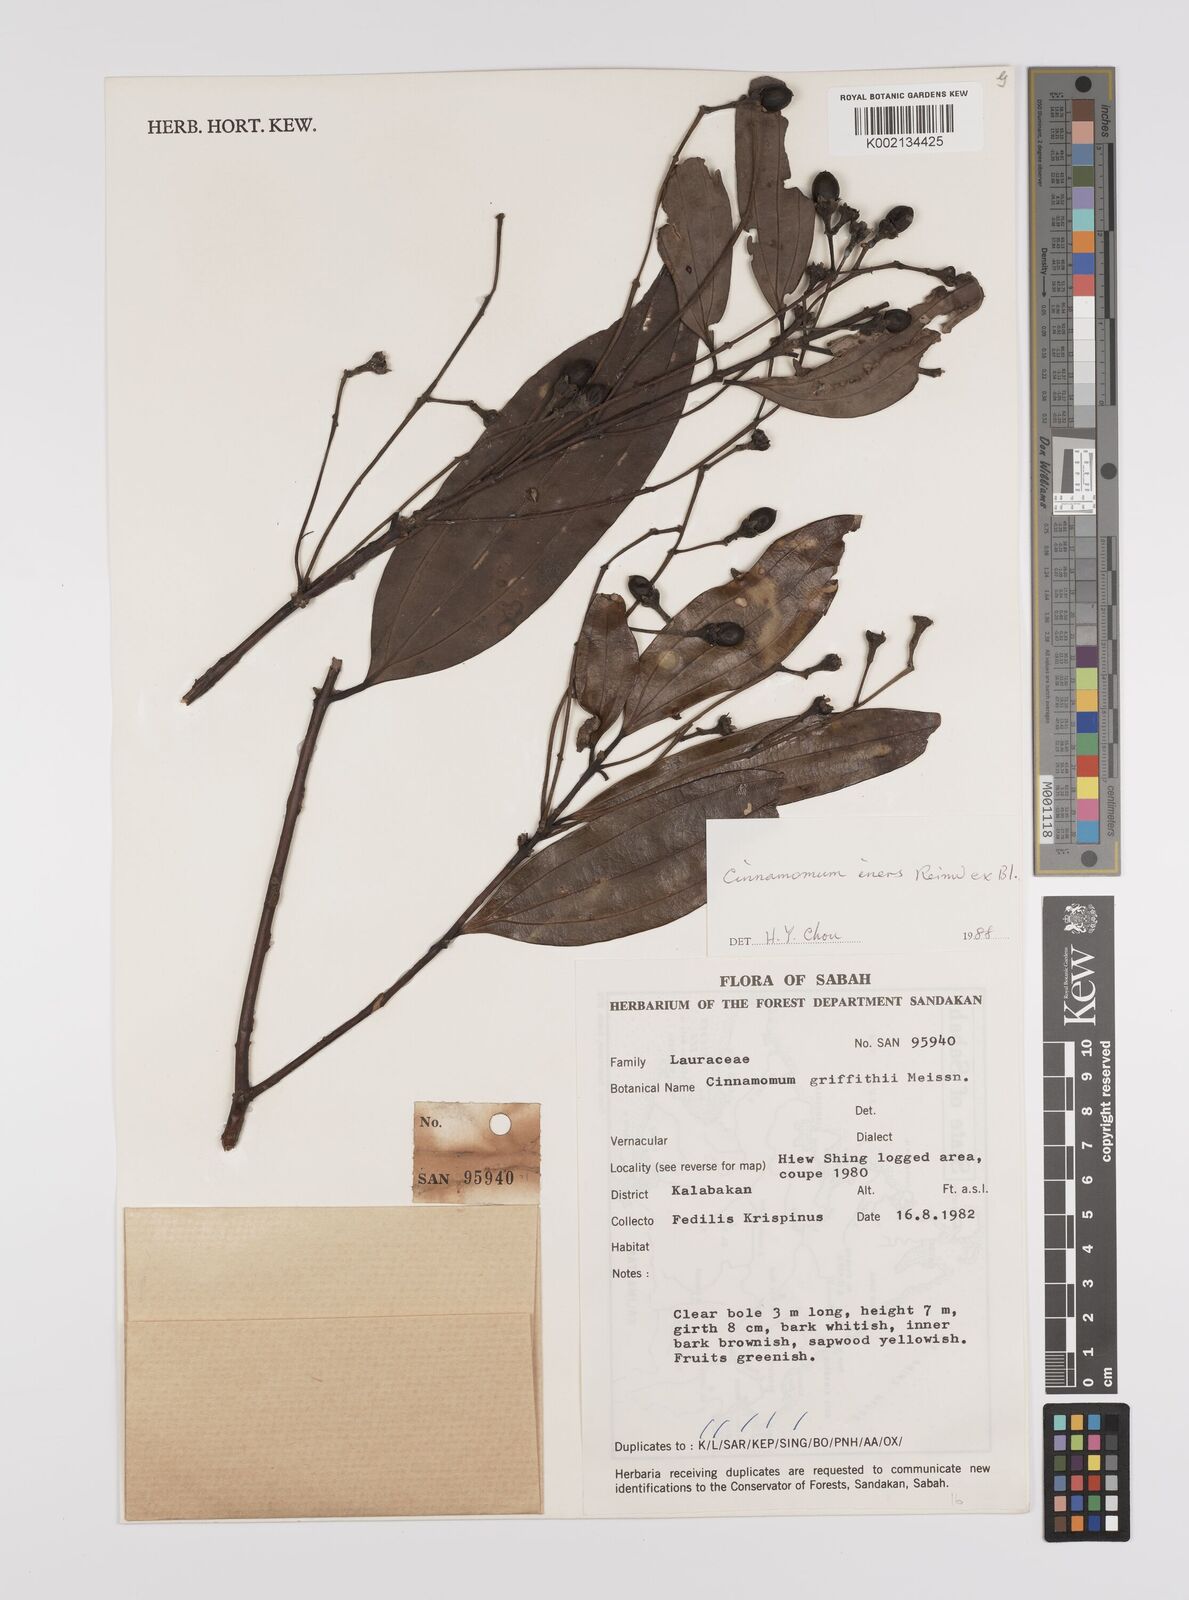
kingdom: Plantae
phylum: Tracheophyta
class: Magnoliopsida
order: Laurales
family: Lauraceae
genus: Cinnamomum
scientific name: Cinnamomum iners
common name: Wild cinnamon
